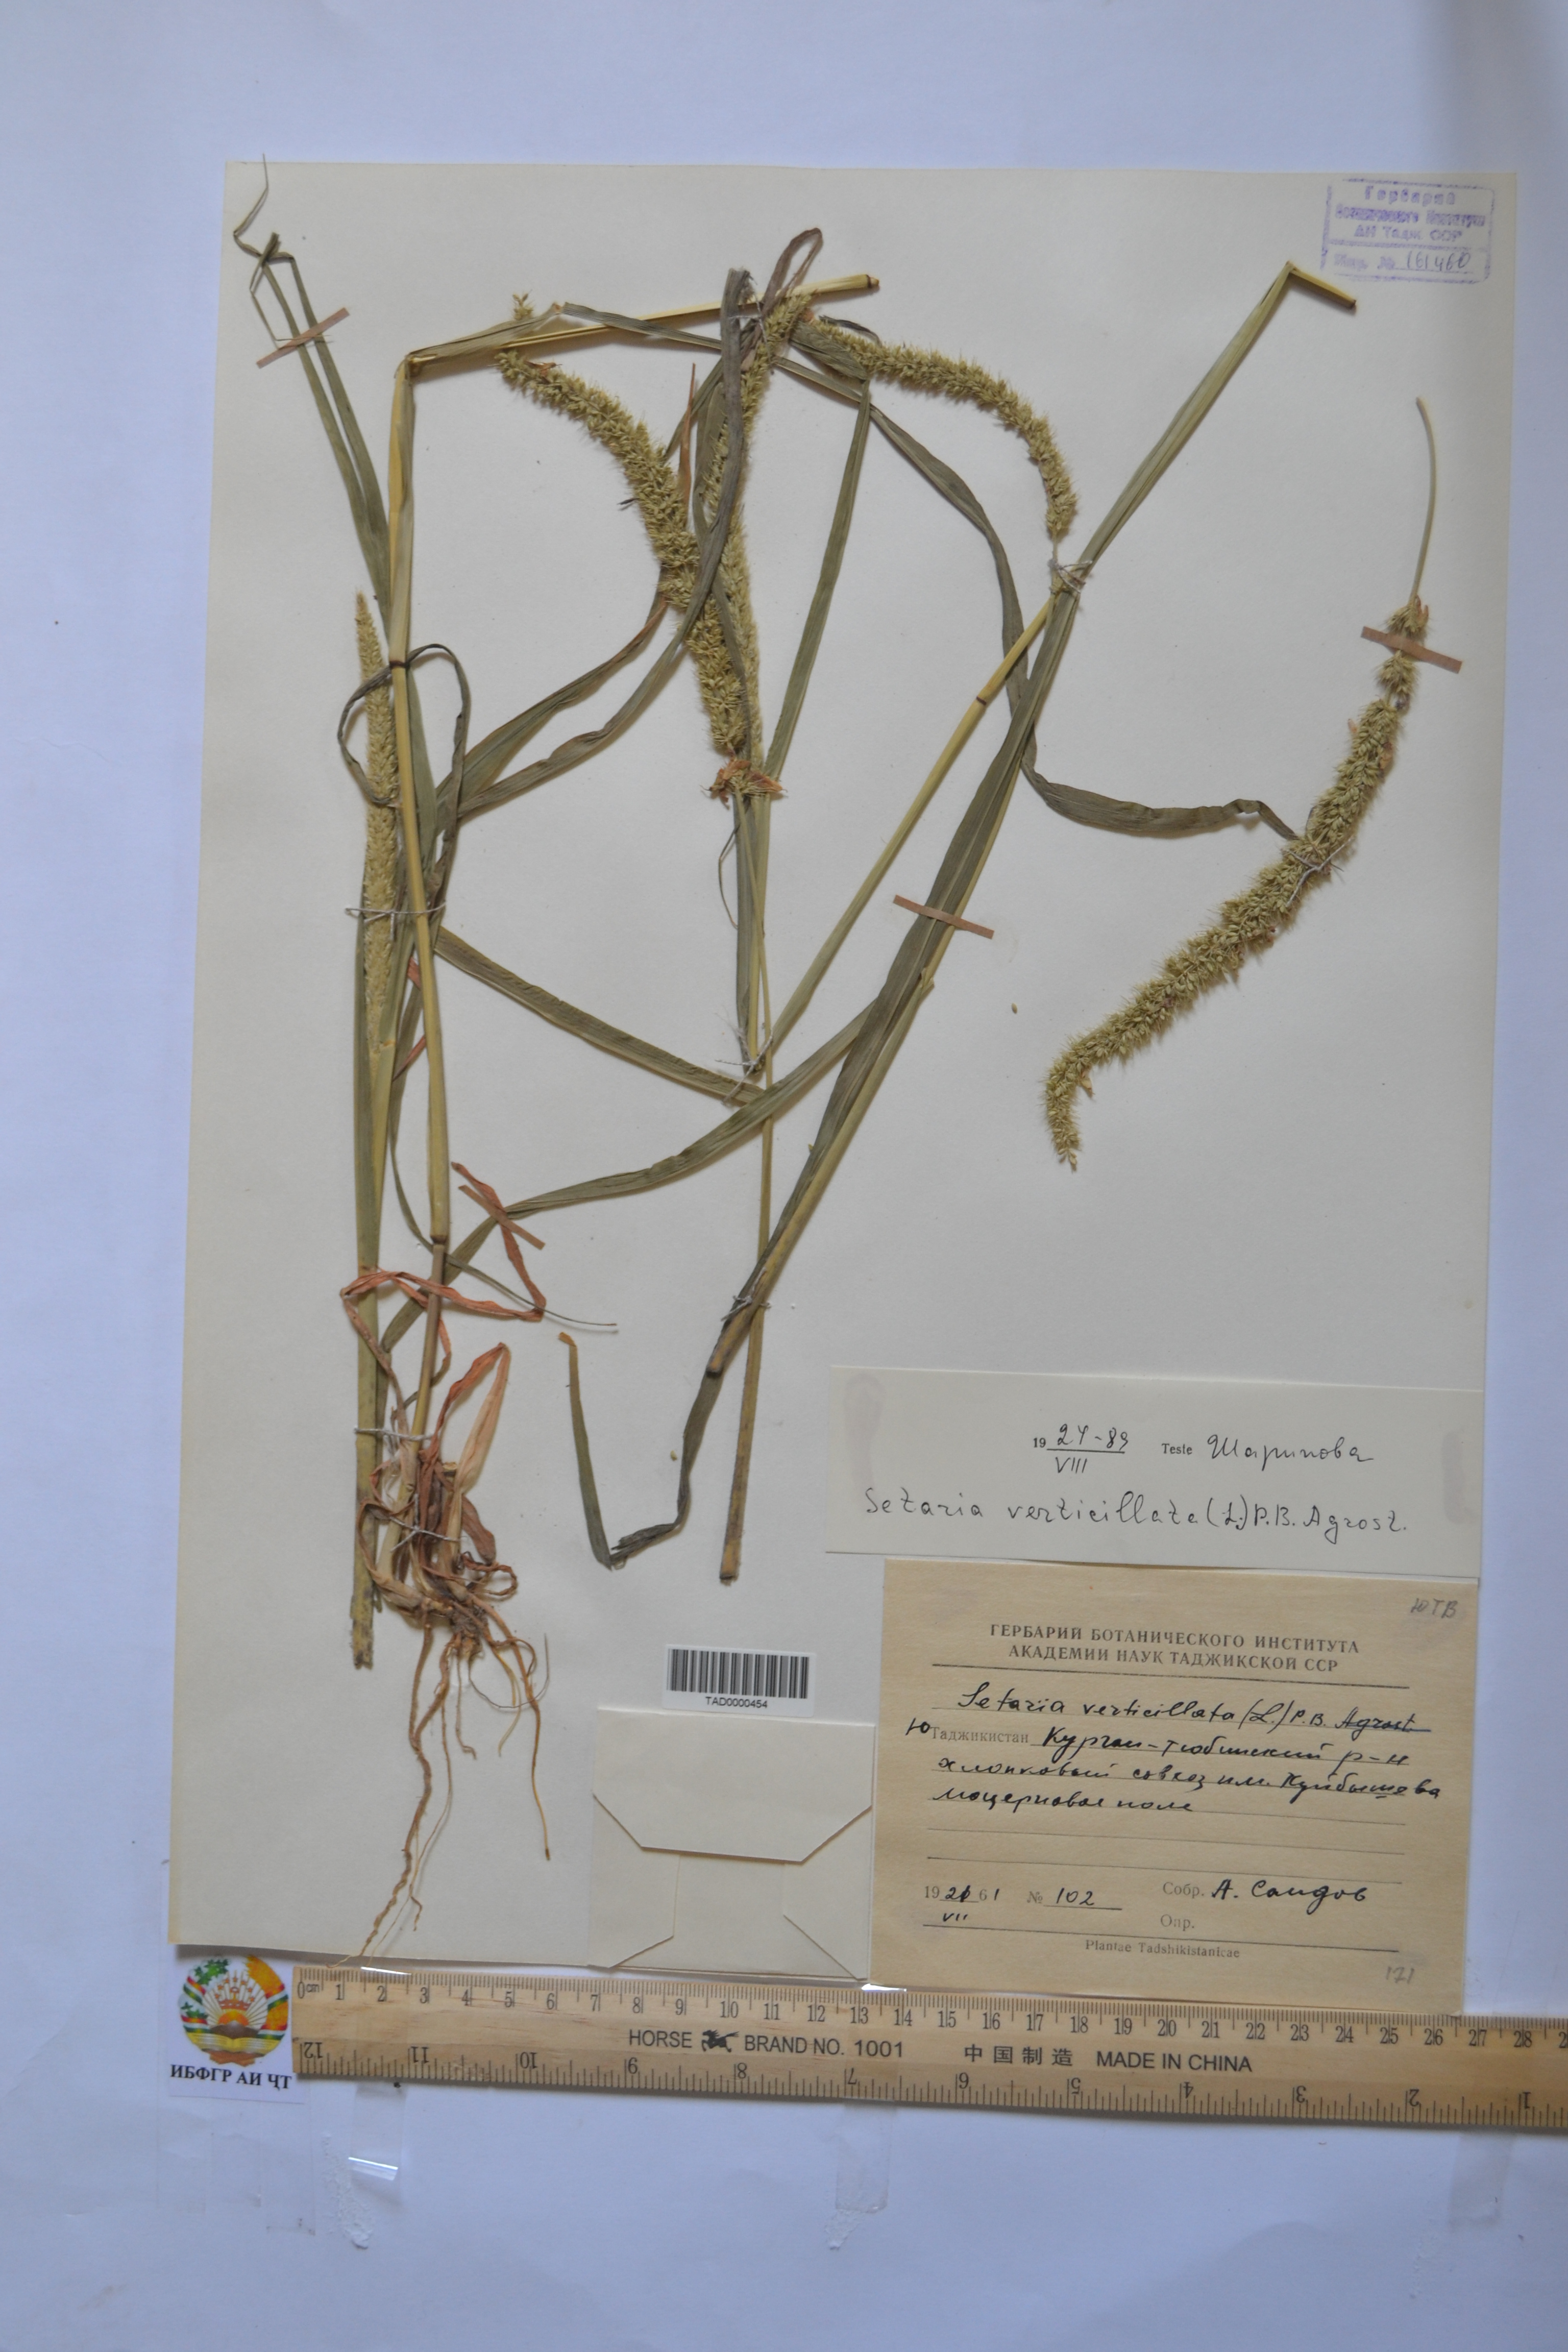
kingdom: Plantae
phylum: Tracheophyta
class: Liliopsida
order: Poales
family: Poaceae
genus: Setaria
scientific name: Setaria verticillata
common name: Hooked bristlegrass
